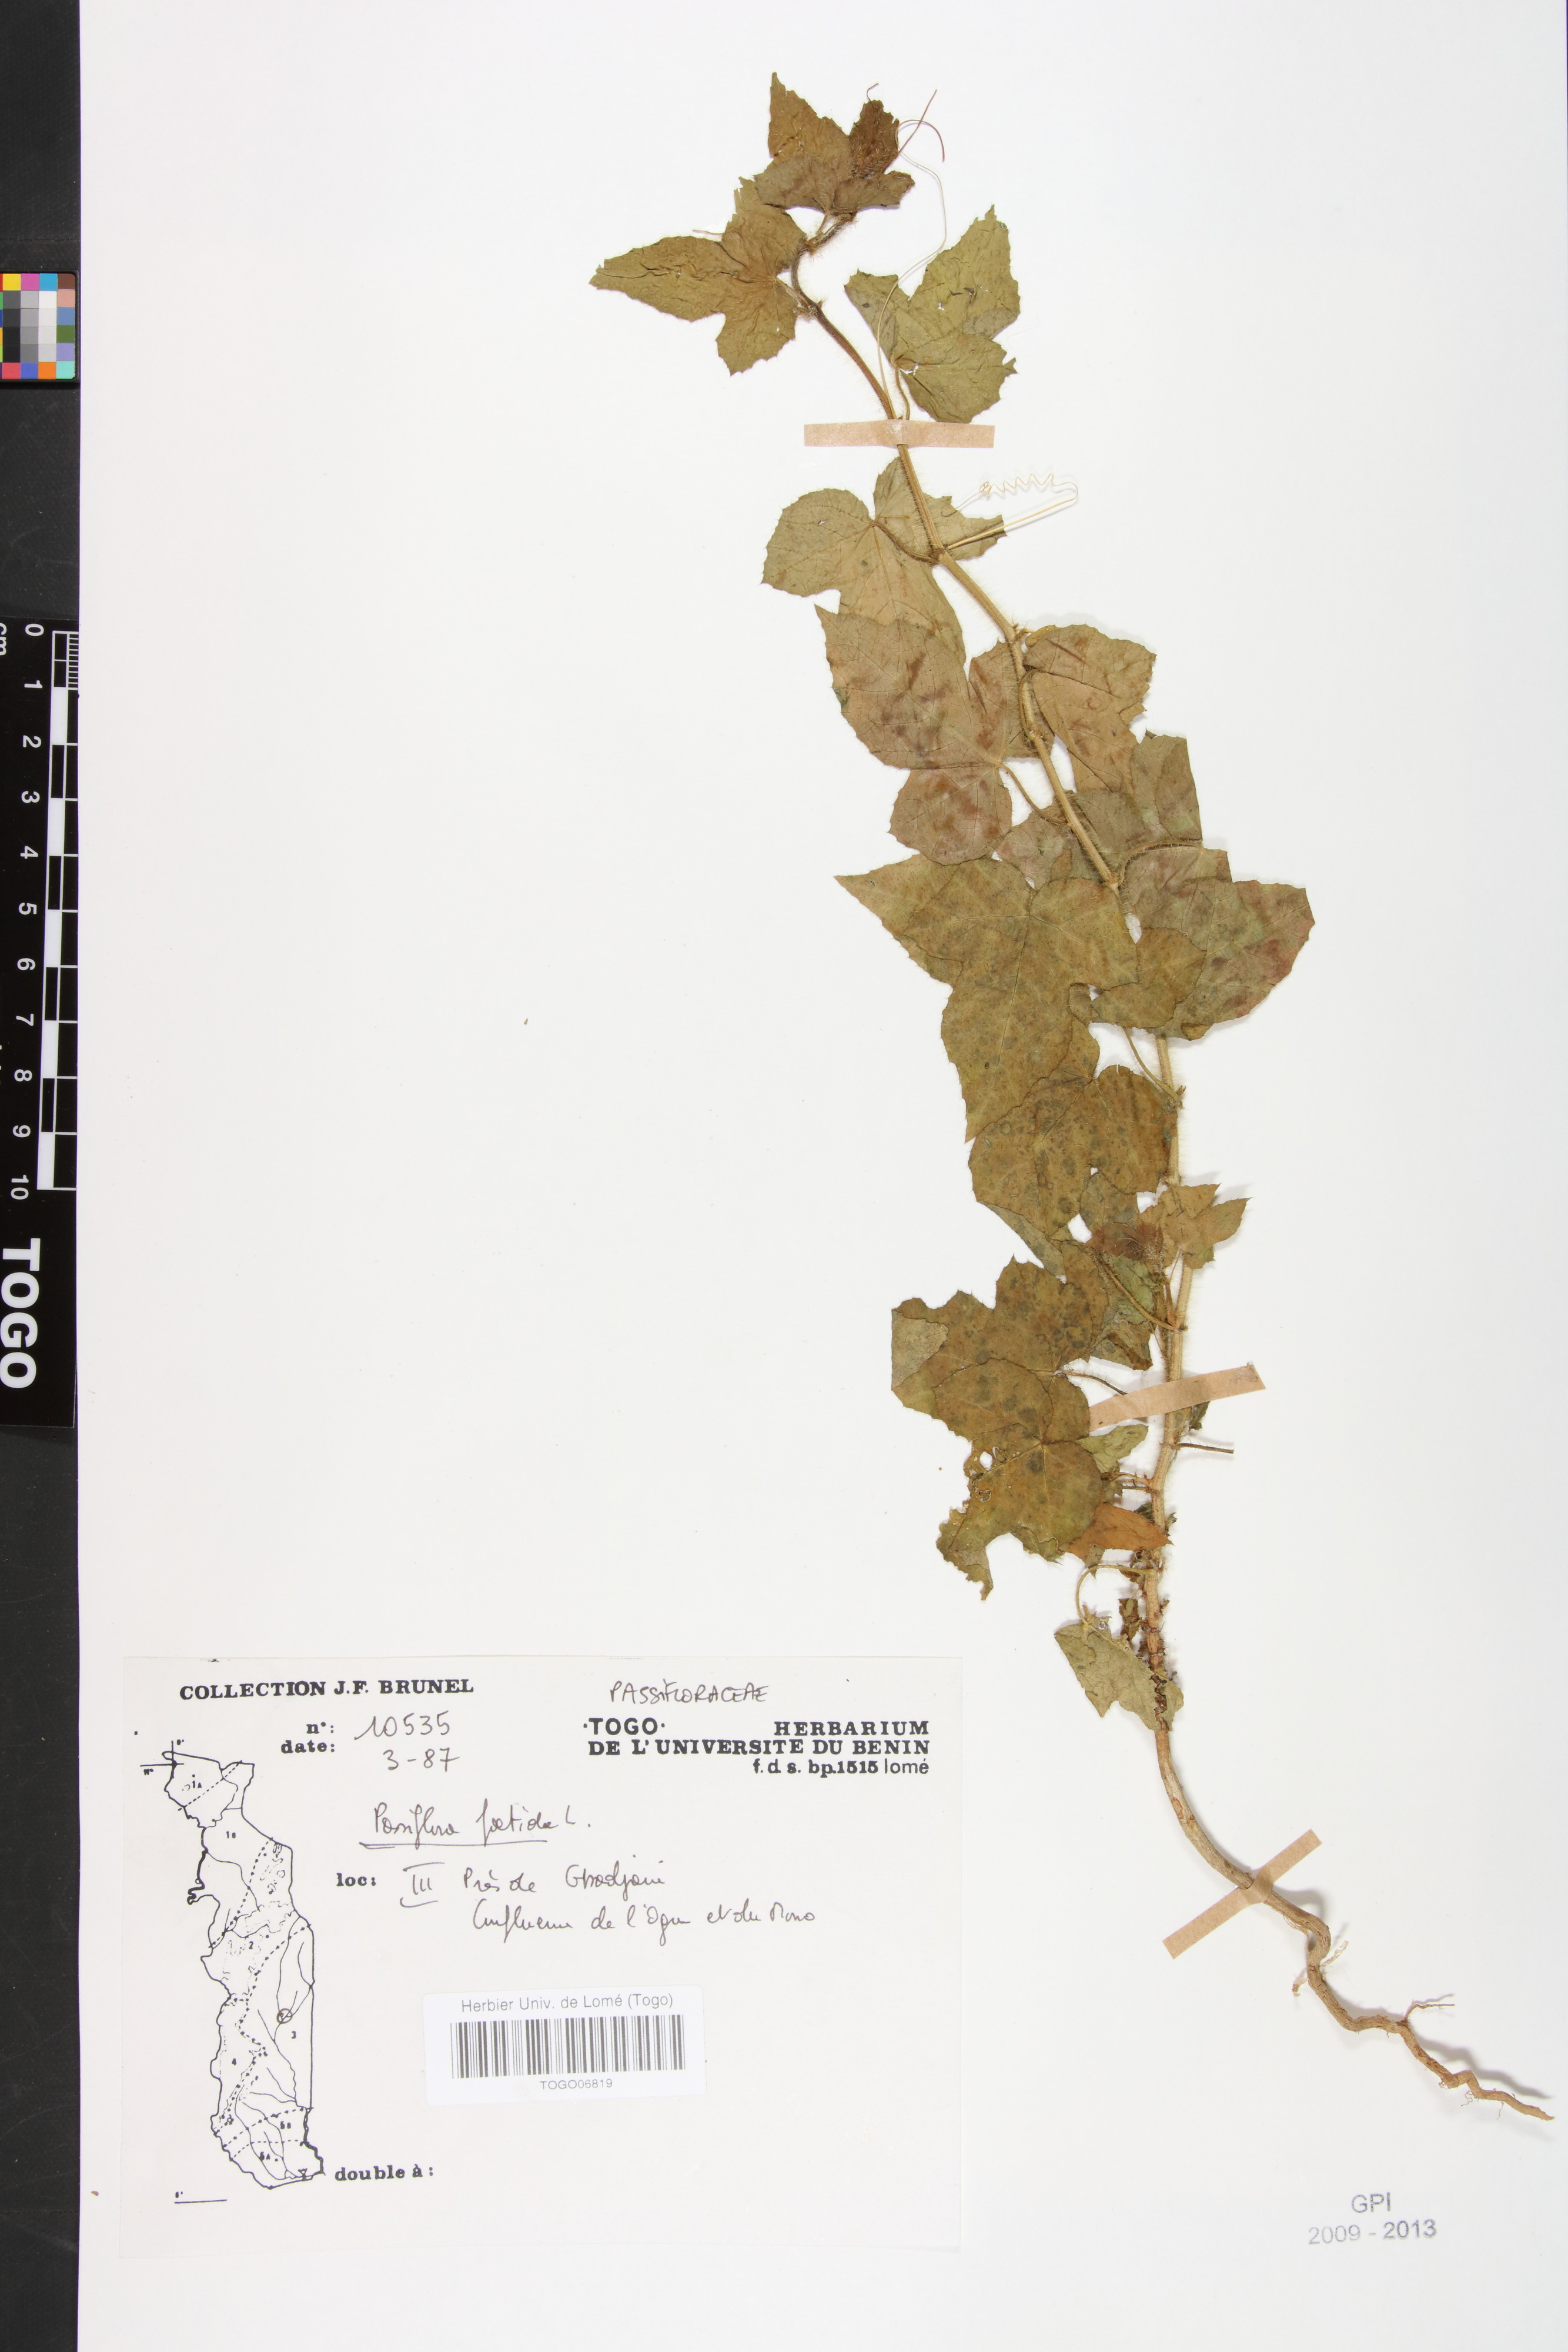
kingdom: Plantae
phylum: Tracheophyta
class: Magnoliopsida
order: Malpighiales
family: Passifloraceae
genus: Passiflora
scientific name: Passiflora foetida
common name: Fetid passionflower
